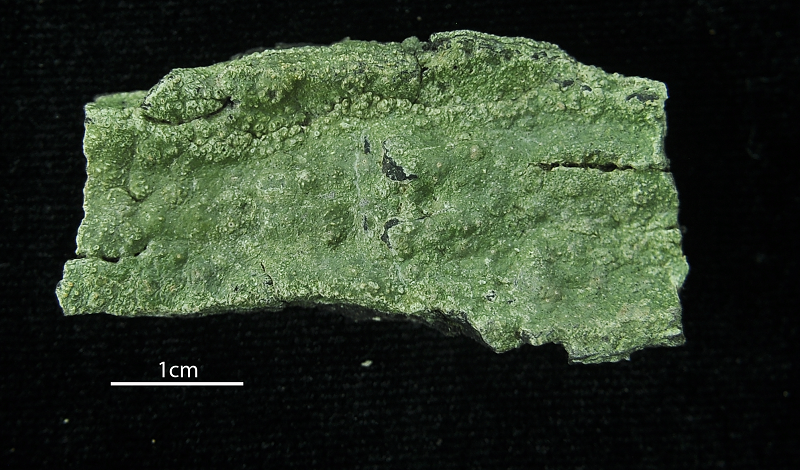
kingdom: Fungi
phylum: Ascomycota
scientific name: Ascomycota
